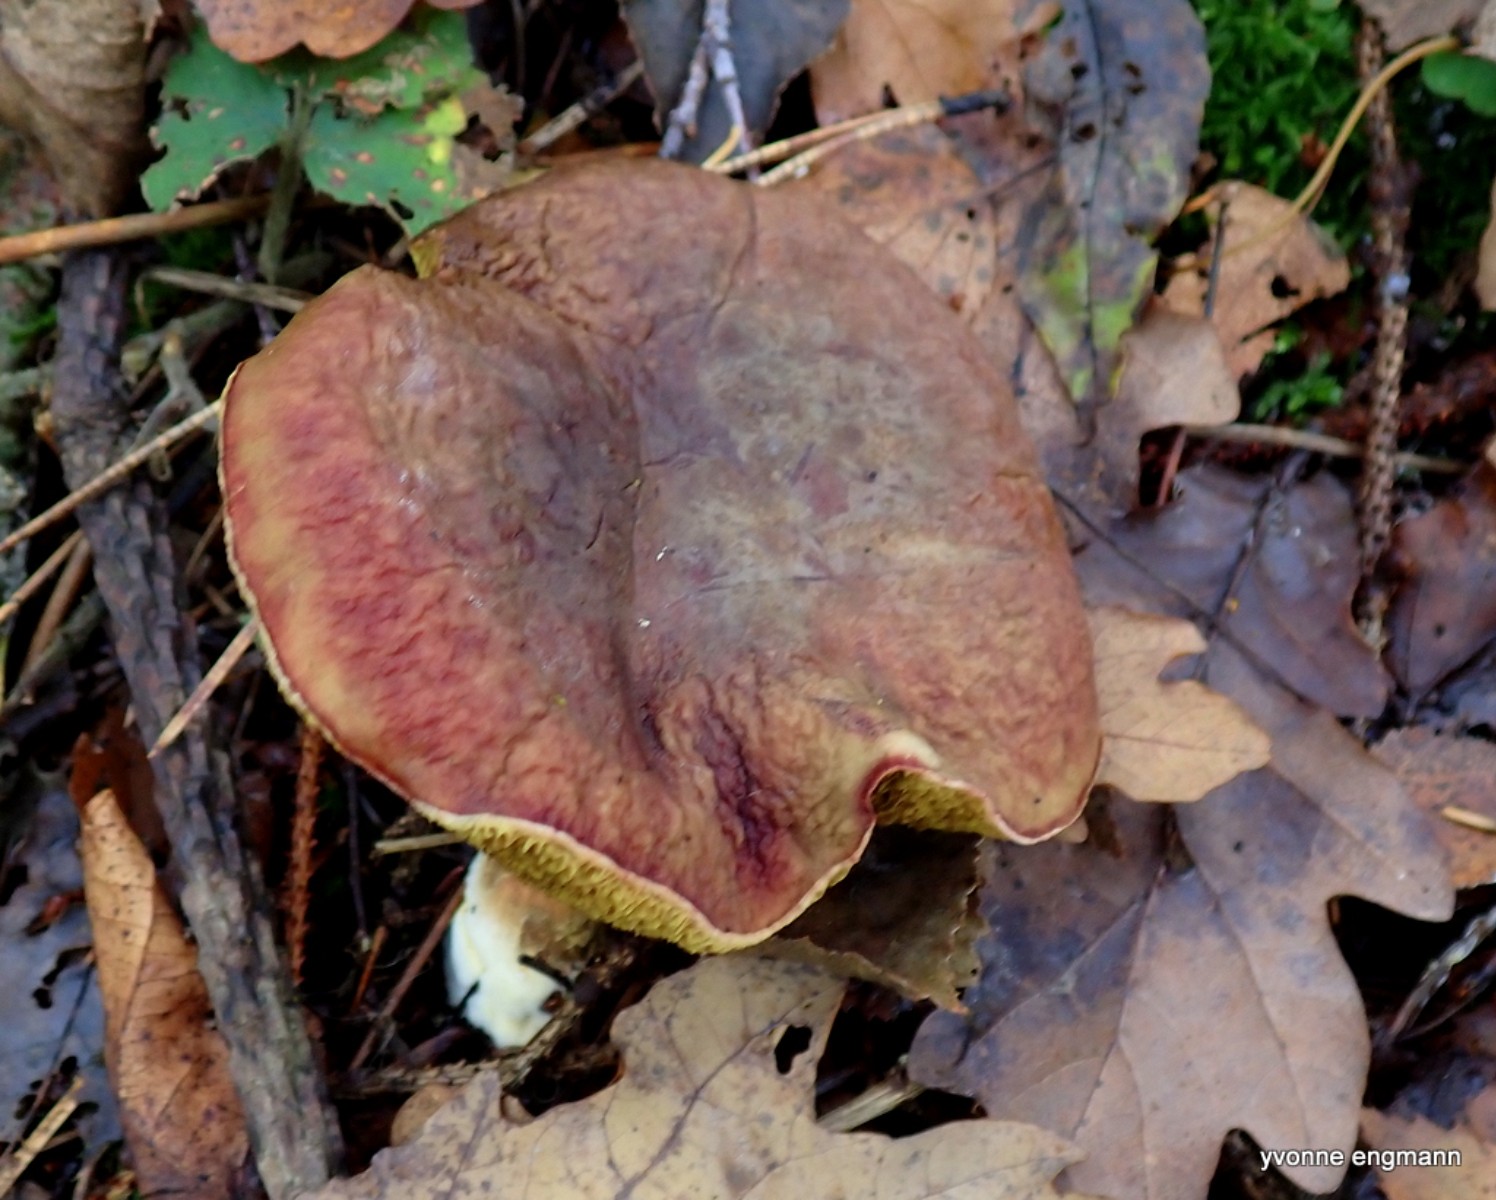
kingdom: Fungi
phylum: Basidiomycota
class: Agaricomycetes
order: Boletales
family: Boletaceae
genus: Xerocomellus
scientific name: Xerocomellus pruinatus
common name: dugget rørhat
